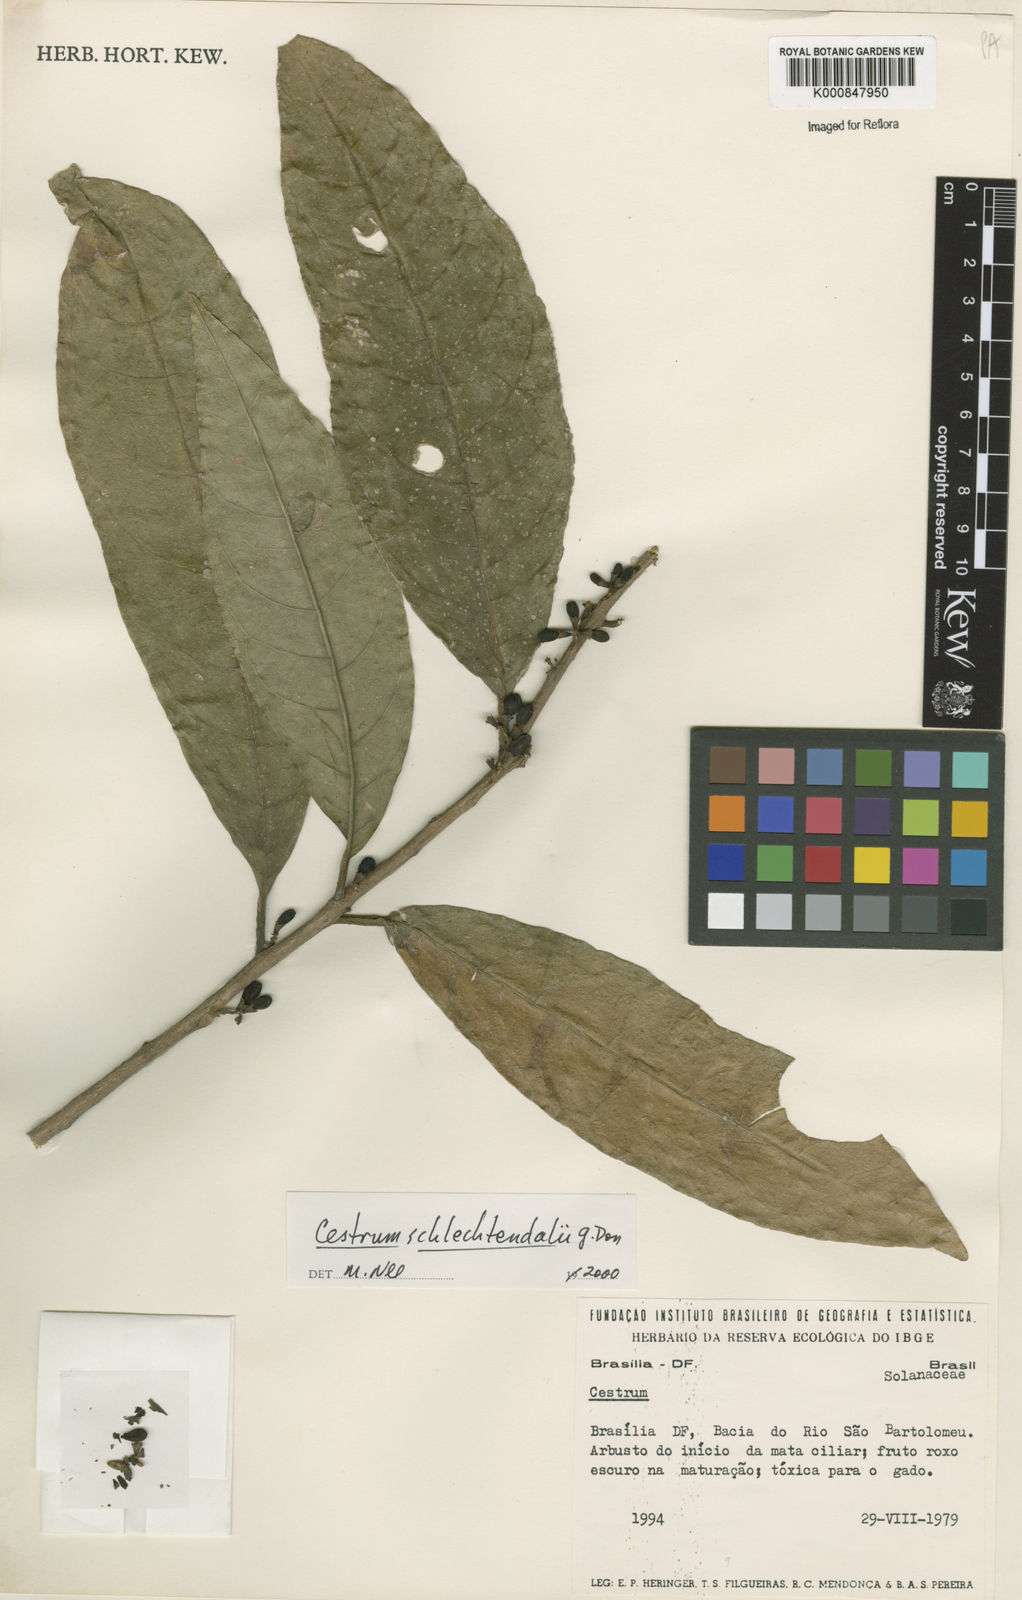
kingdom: Plantae
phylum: Tracheophyta
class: Magnoliopsida
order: Solanales
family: Solanaceae
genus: Cestrum
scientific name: Cestrum schlechtendalii
